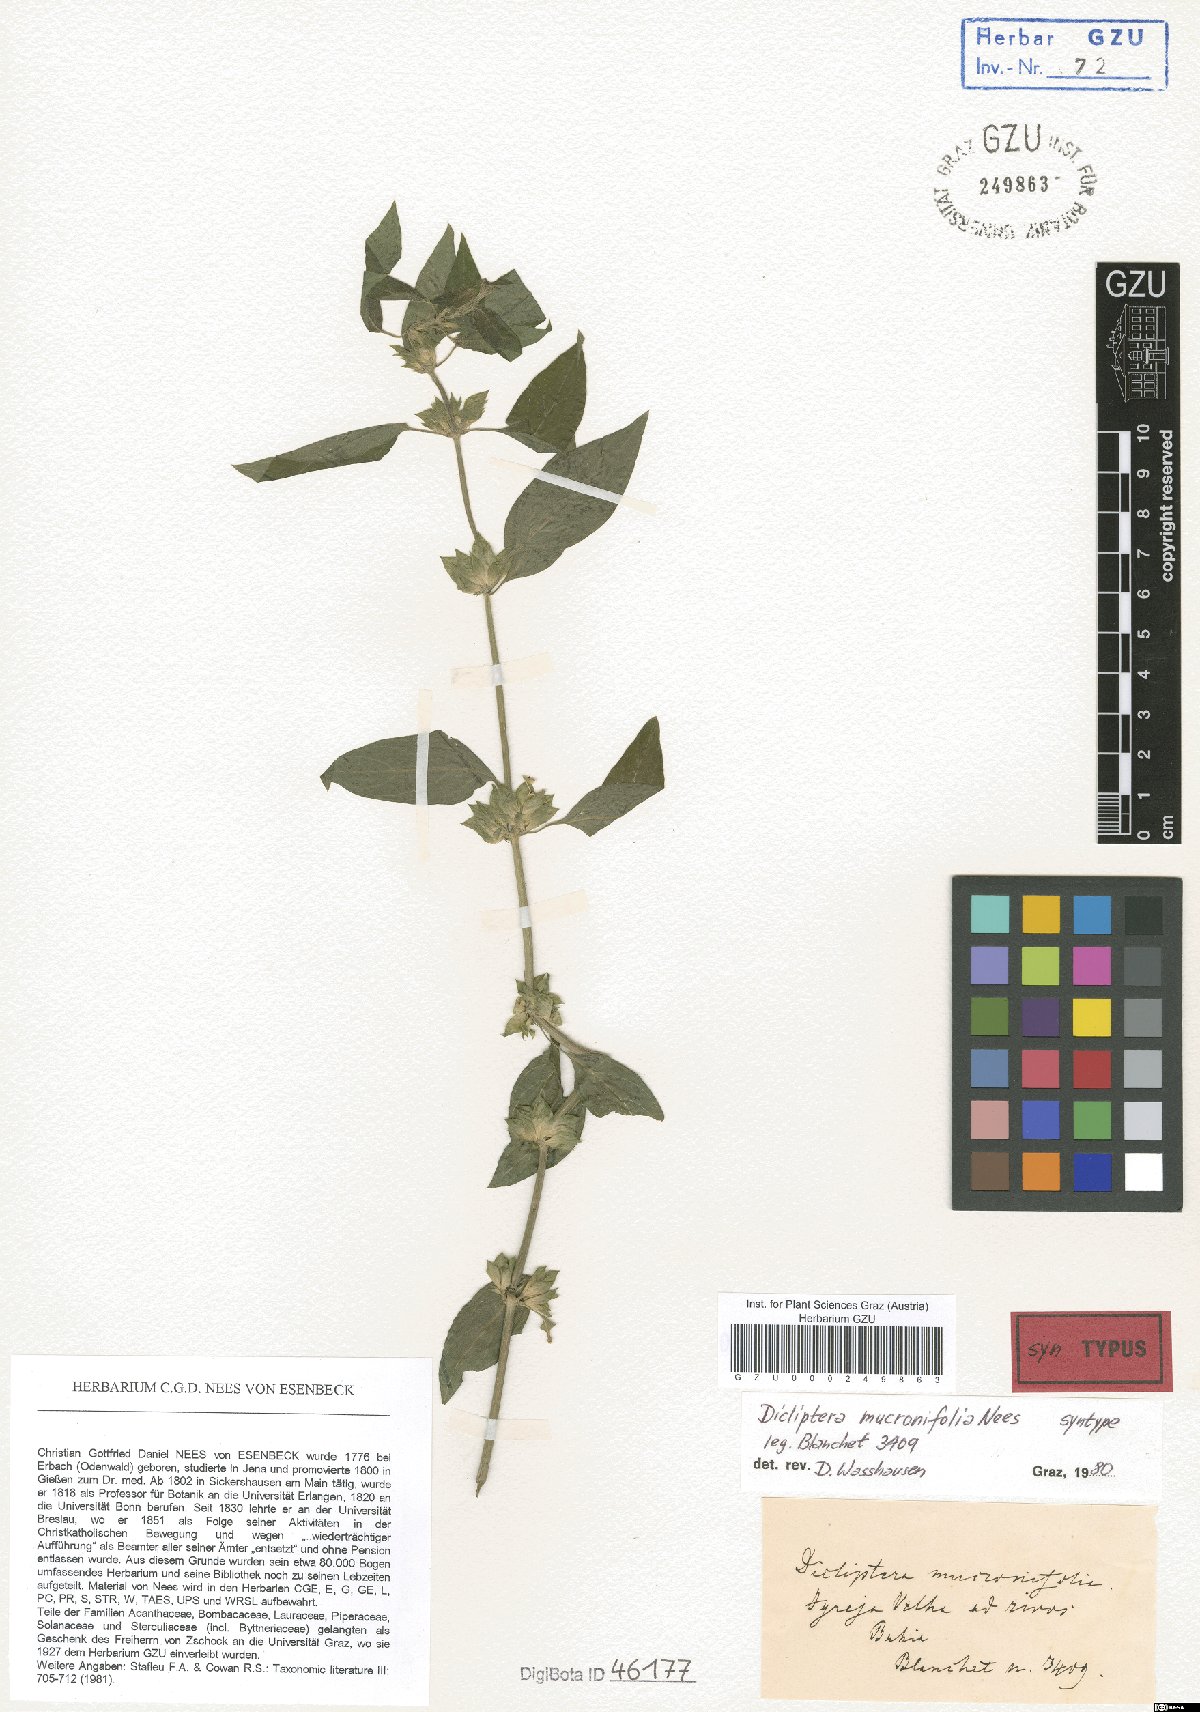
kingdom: Plantae
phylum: Tracheophyta
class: Magnoliopsida
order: Lamiales
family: Acanthaceae
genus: Dicliptera
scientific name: Dicliptera mucronifolia
